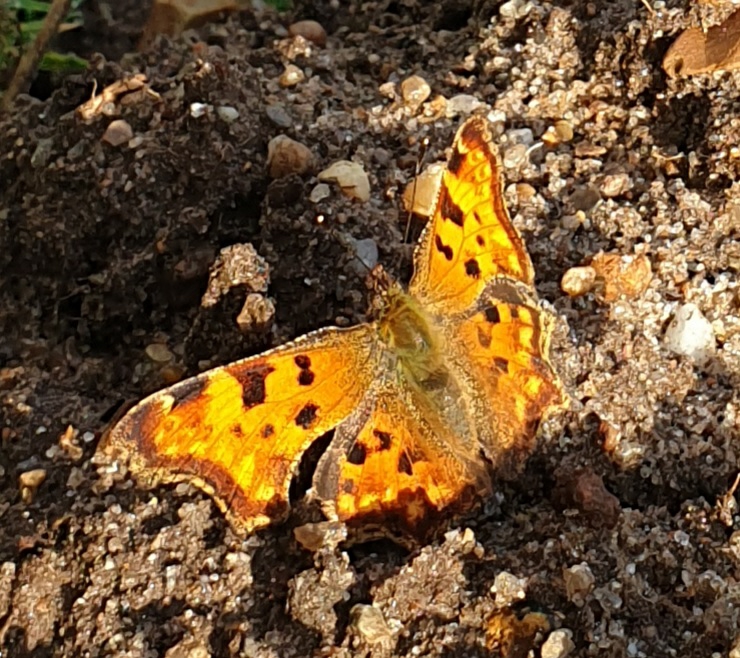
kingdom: Animalia
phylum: Arthropoda
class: Insecta
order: Lepidoptera
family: Nymphalidae
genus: Polygonia
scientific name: Polygonia c-album
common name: Det hvide C
